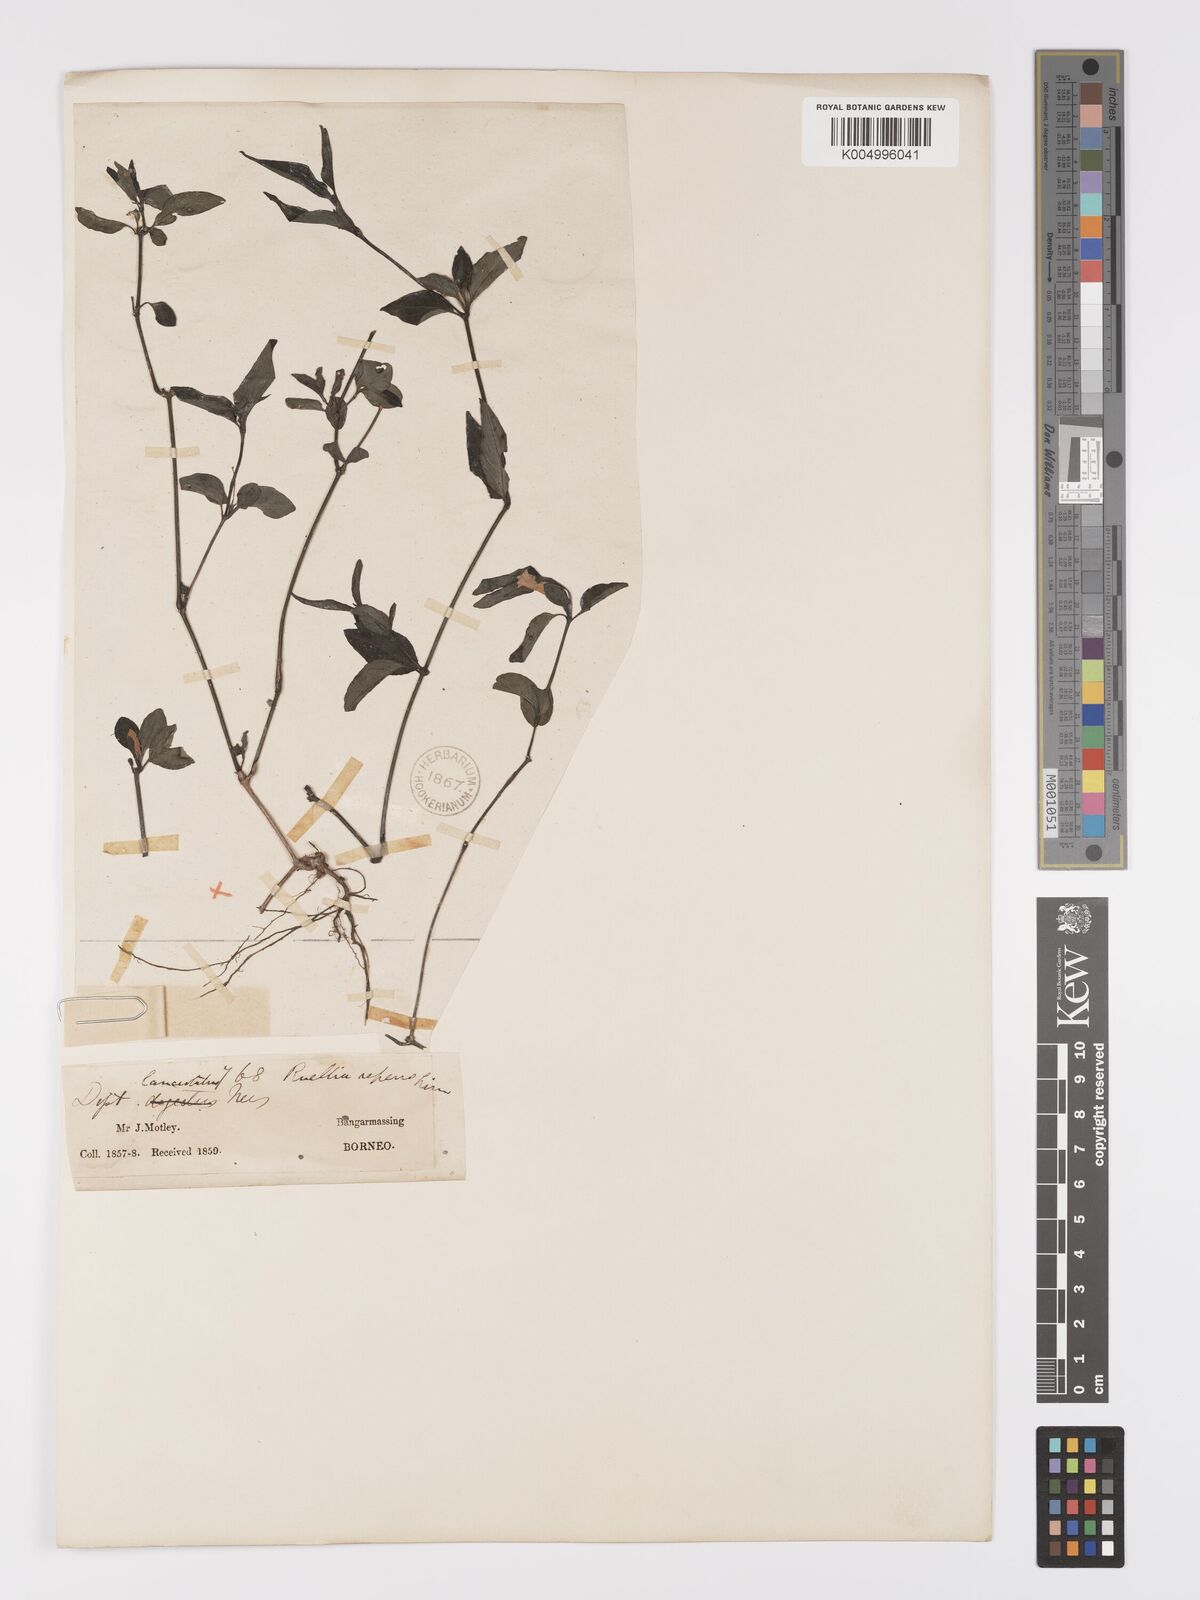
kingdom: Plantae
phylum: Tracheophyta
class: Magnoliopsida
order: Lamiales
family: Acanthaceae
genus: Ruellia
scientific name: Ruellia
